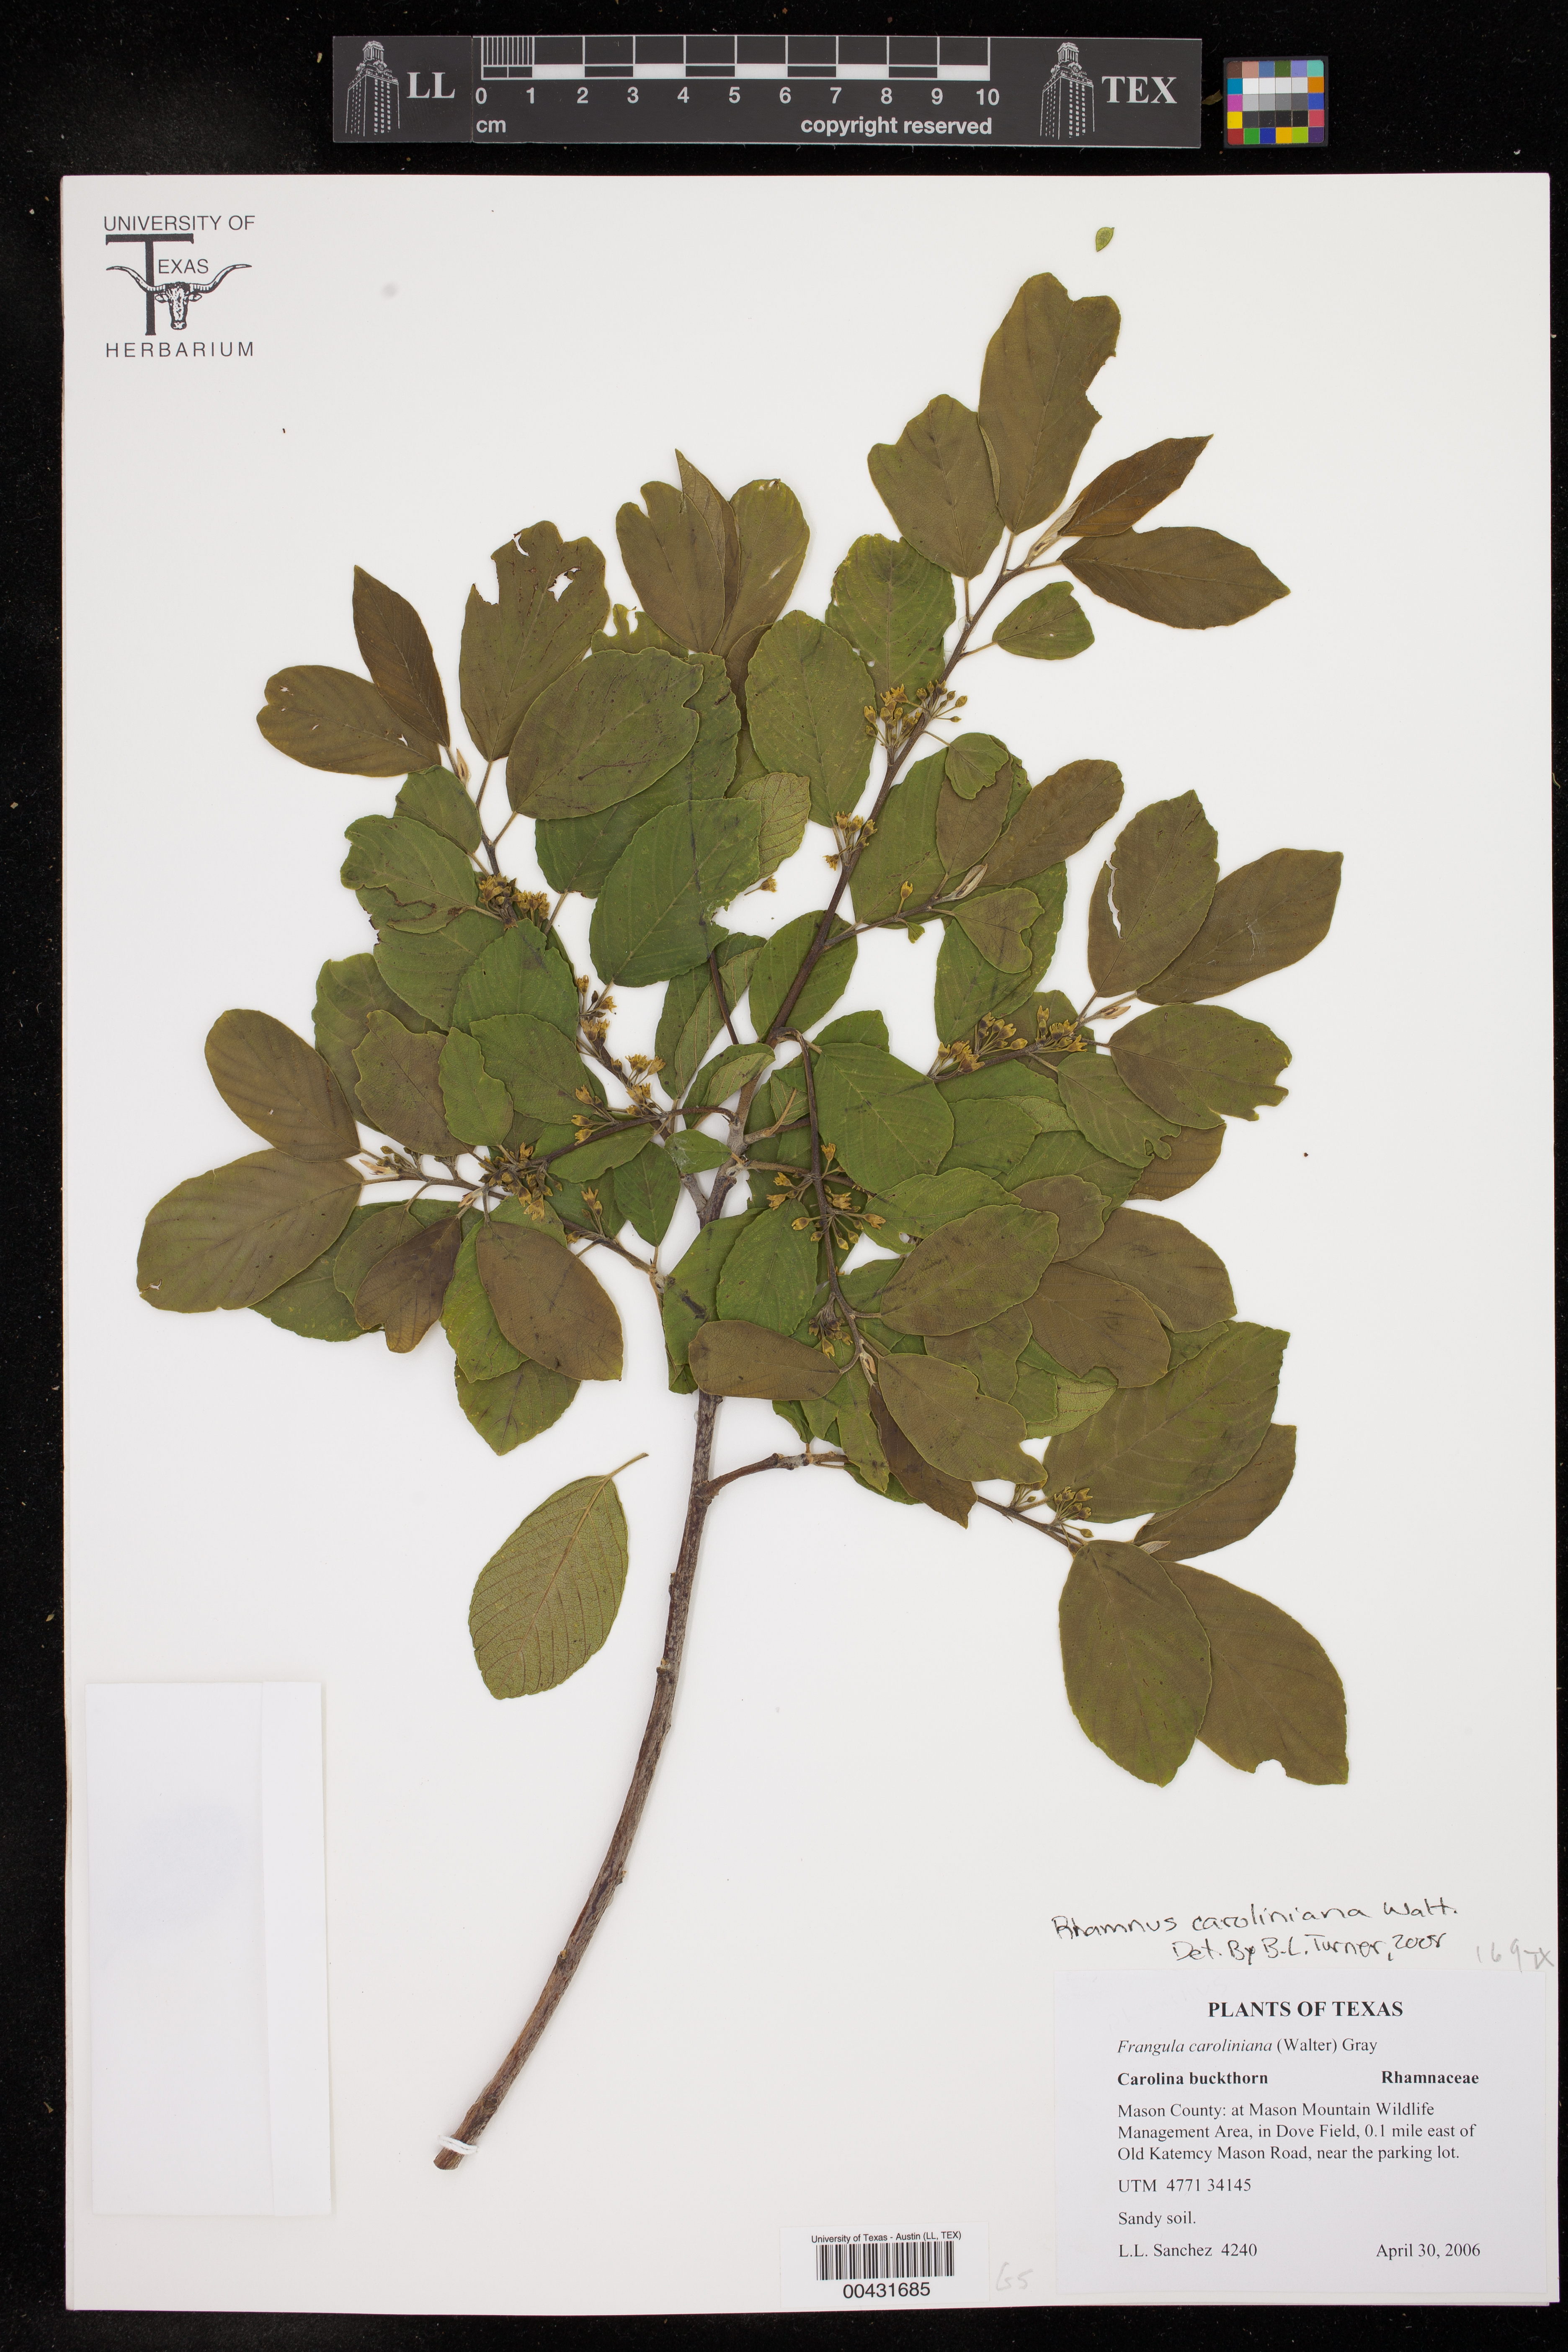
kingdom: Plantae
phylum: Tracheophyta
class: Magnoliopsida
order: Rosales
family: Rhamnaceae
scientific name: Rhamnaceae
